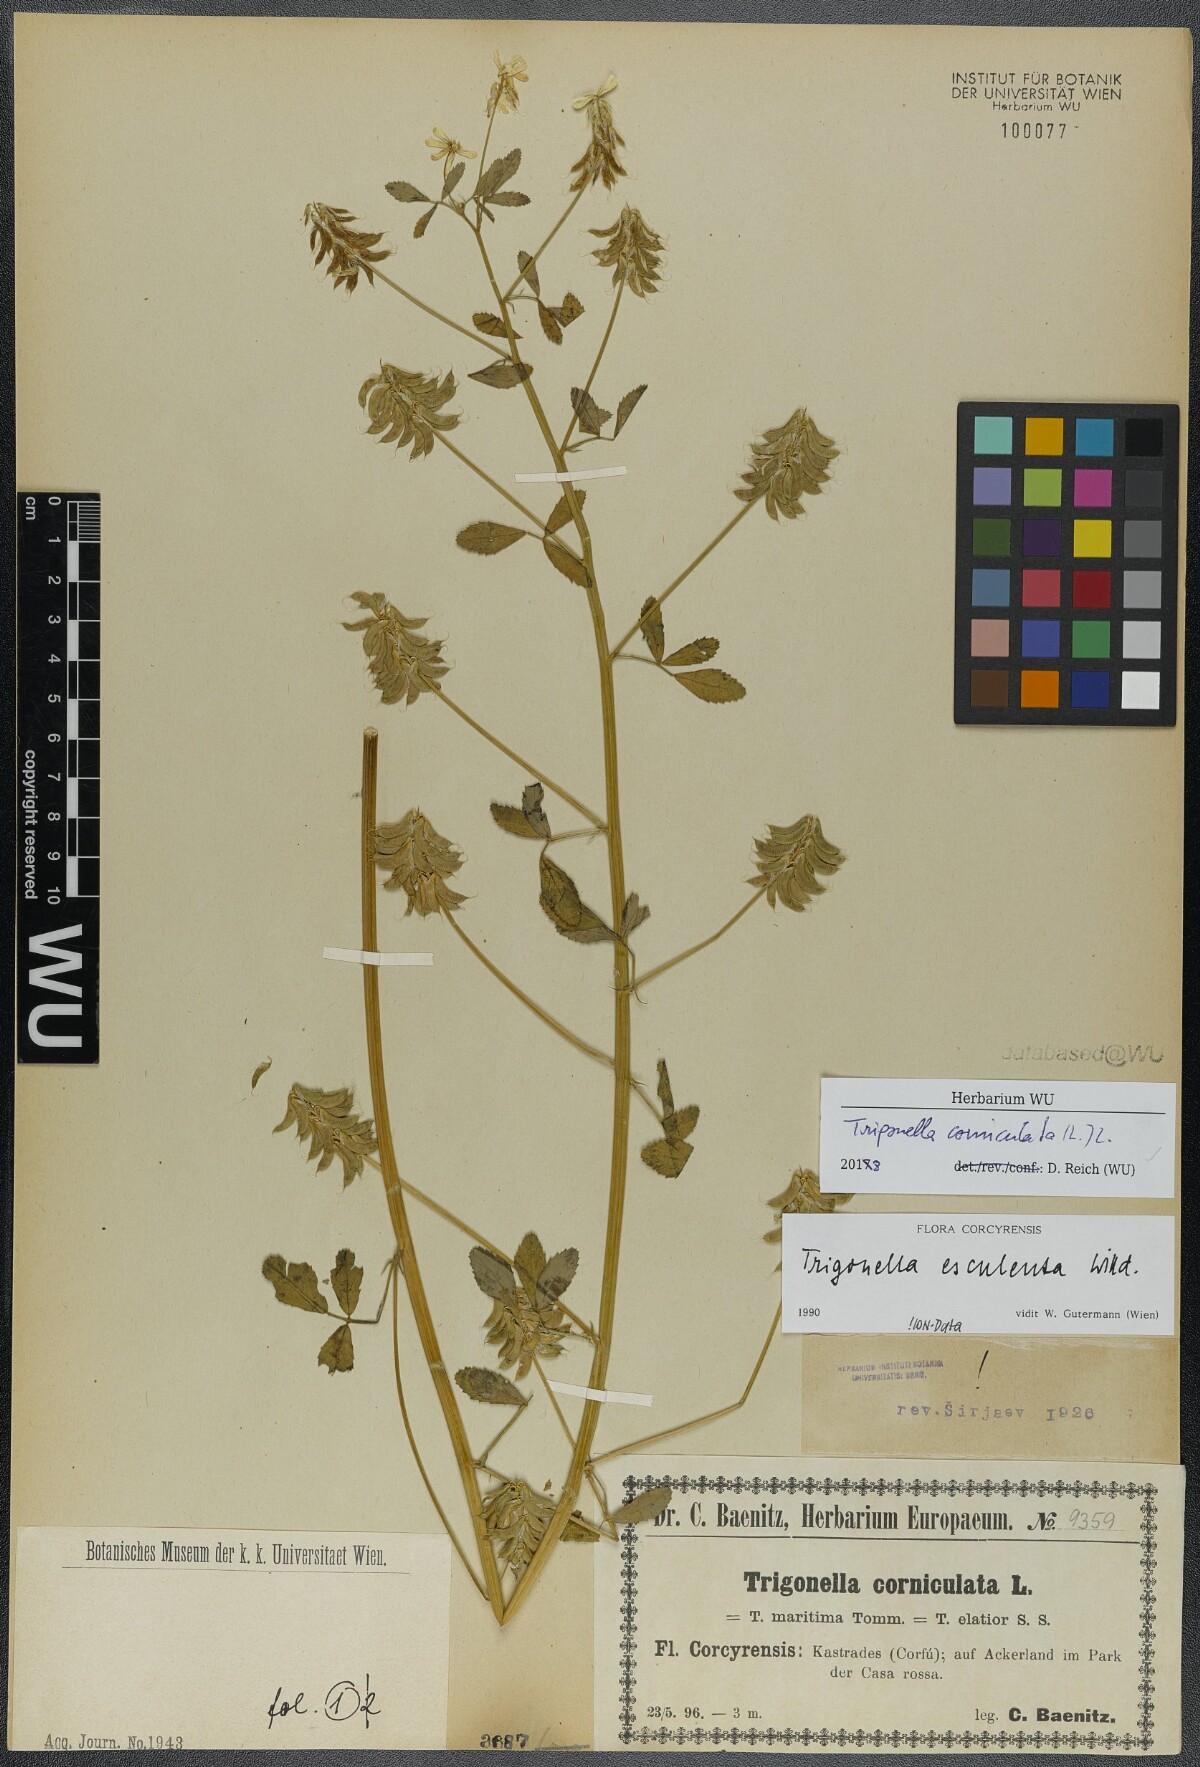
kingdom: Plantae
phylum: Tracheophyta
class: Magnoliopsida
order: Fabales
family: Fabaceae
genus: Trigonella
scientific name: Trigonella balansae
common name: Sickle-fruited fenugreek
